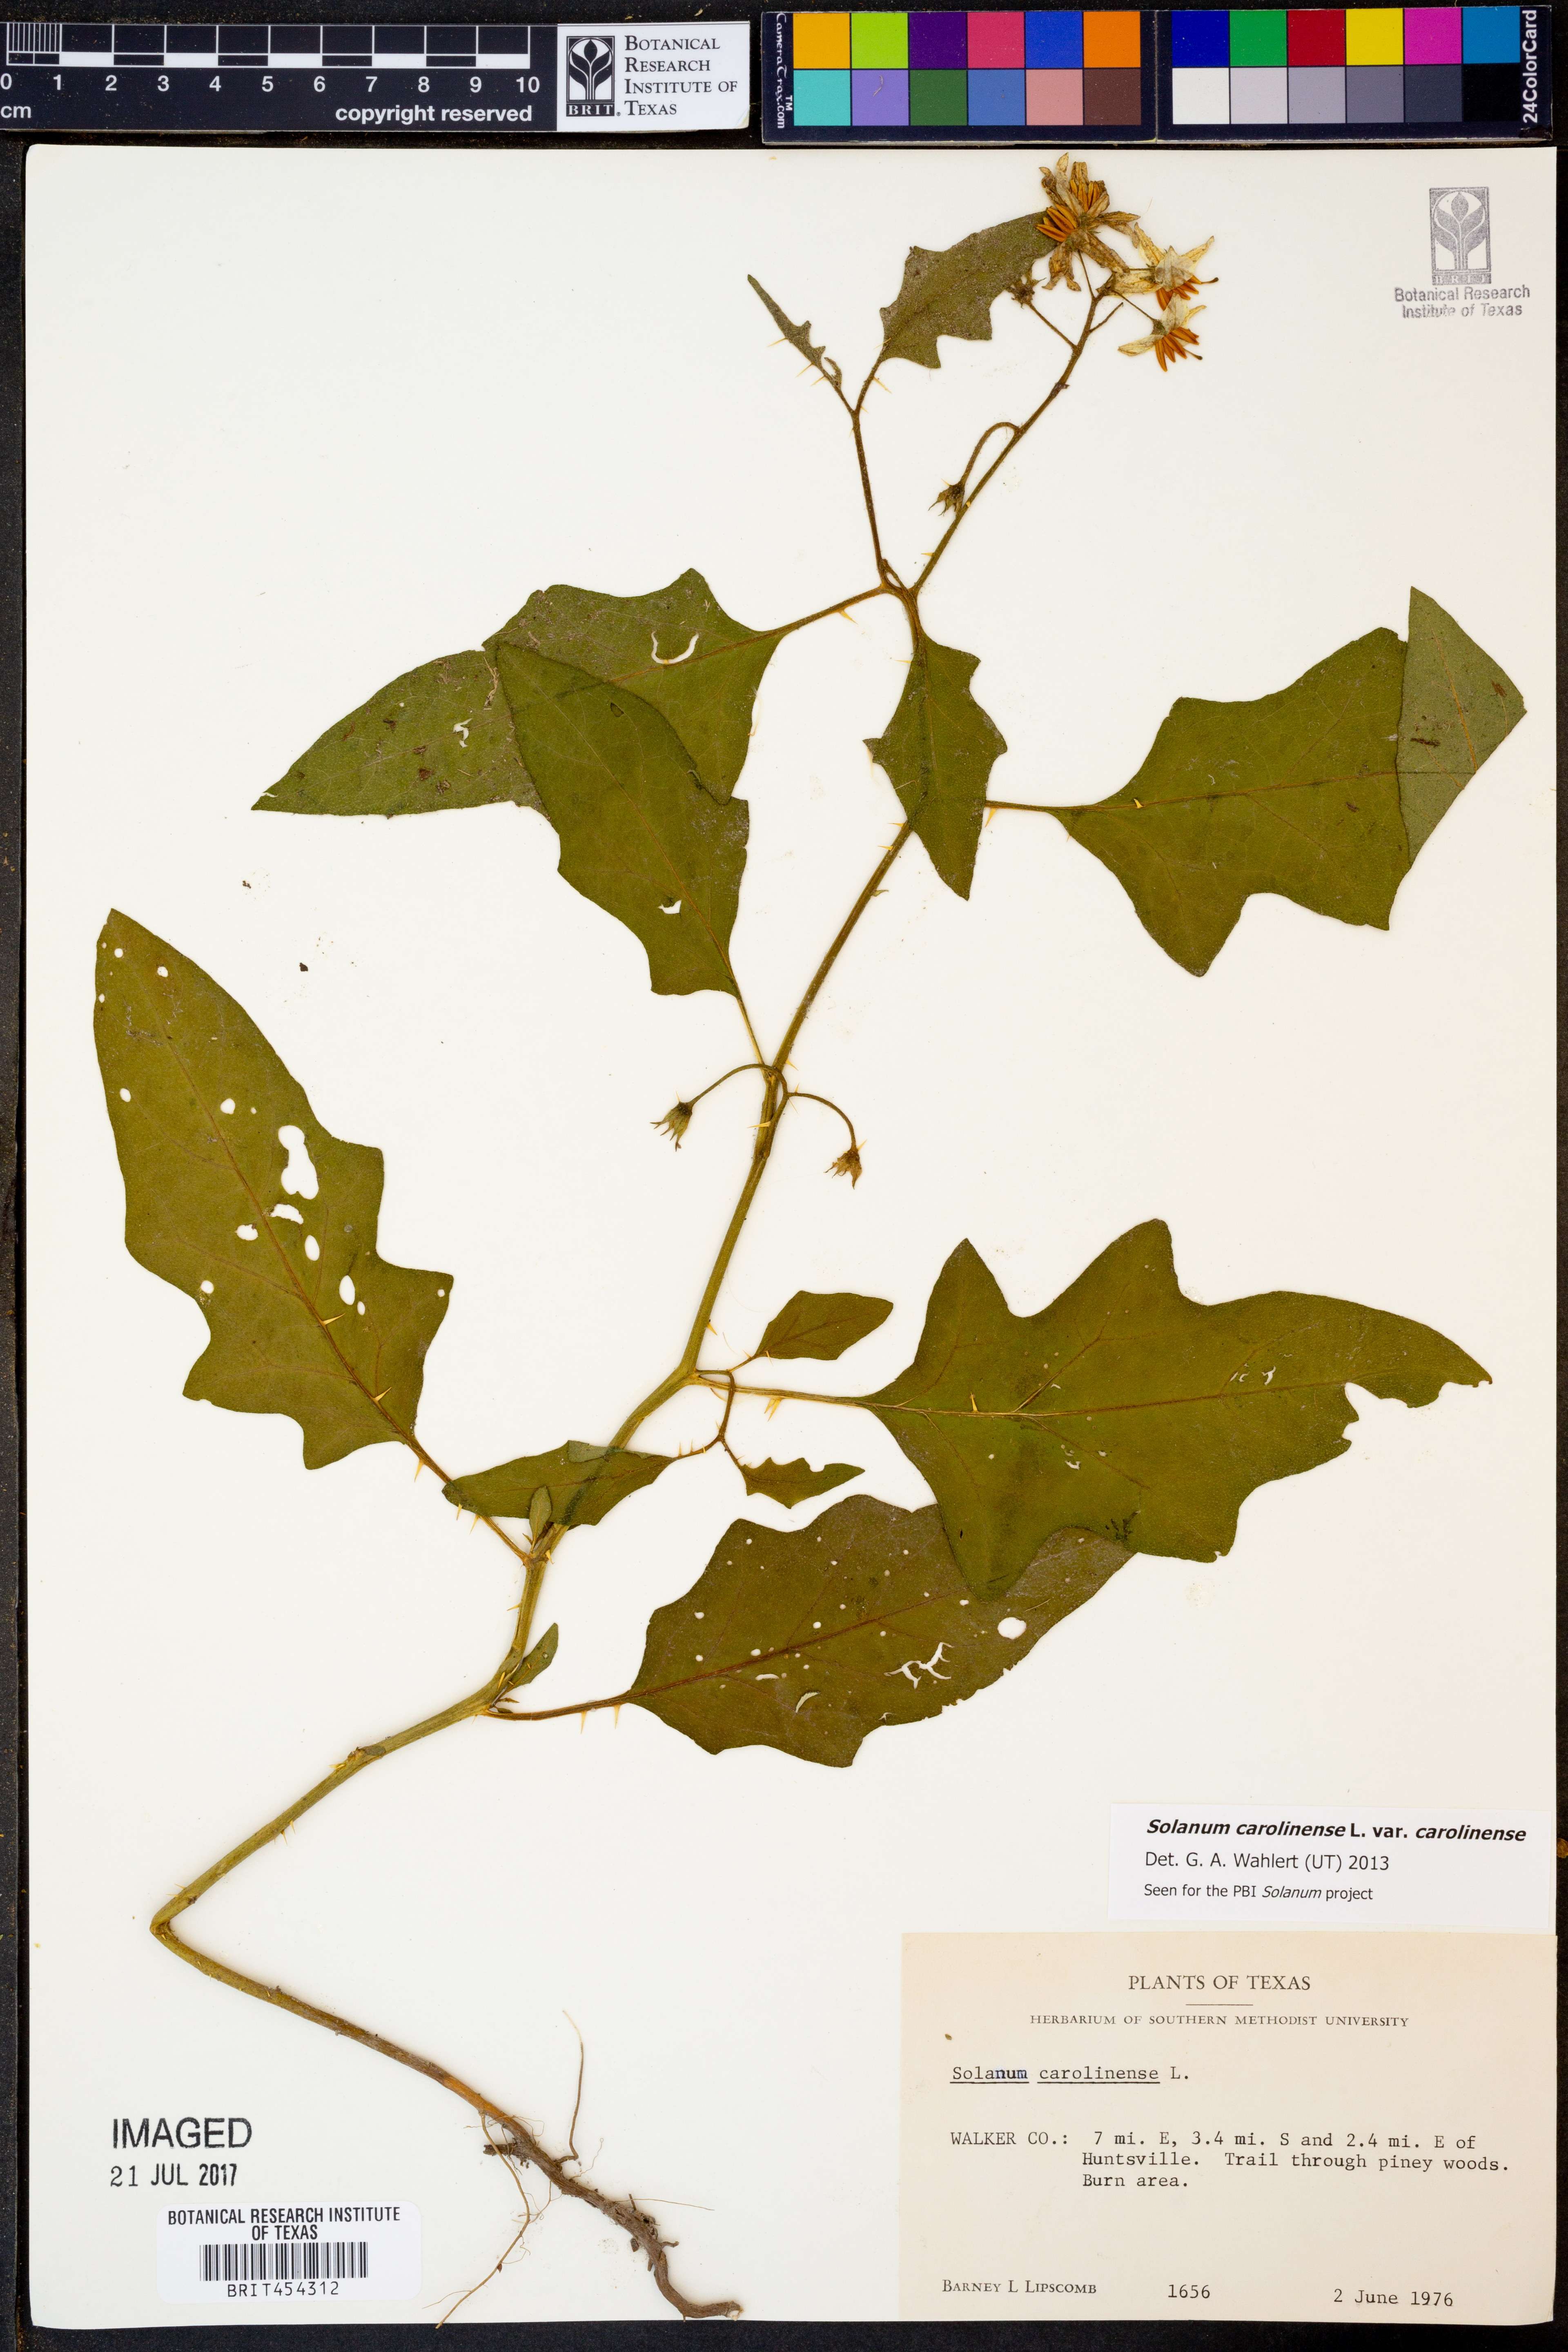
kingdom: Plantae
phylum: Tracheophyta
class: Magnoliopsida
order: Solanales
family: Solanaceae
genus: Solanum
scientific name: Solanum carolinense
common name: Horse-nettle
